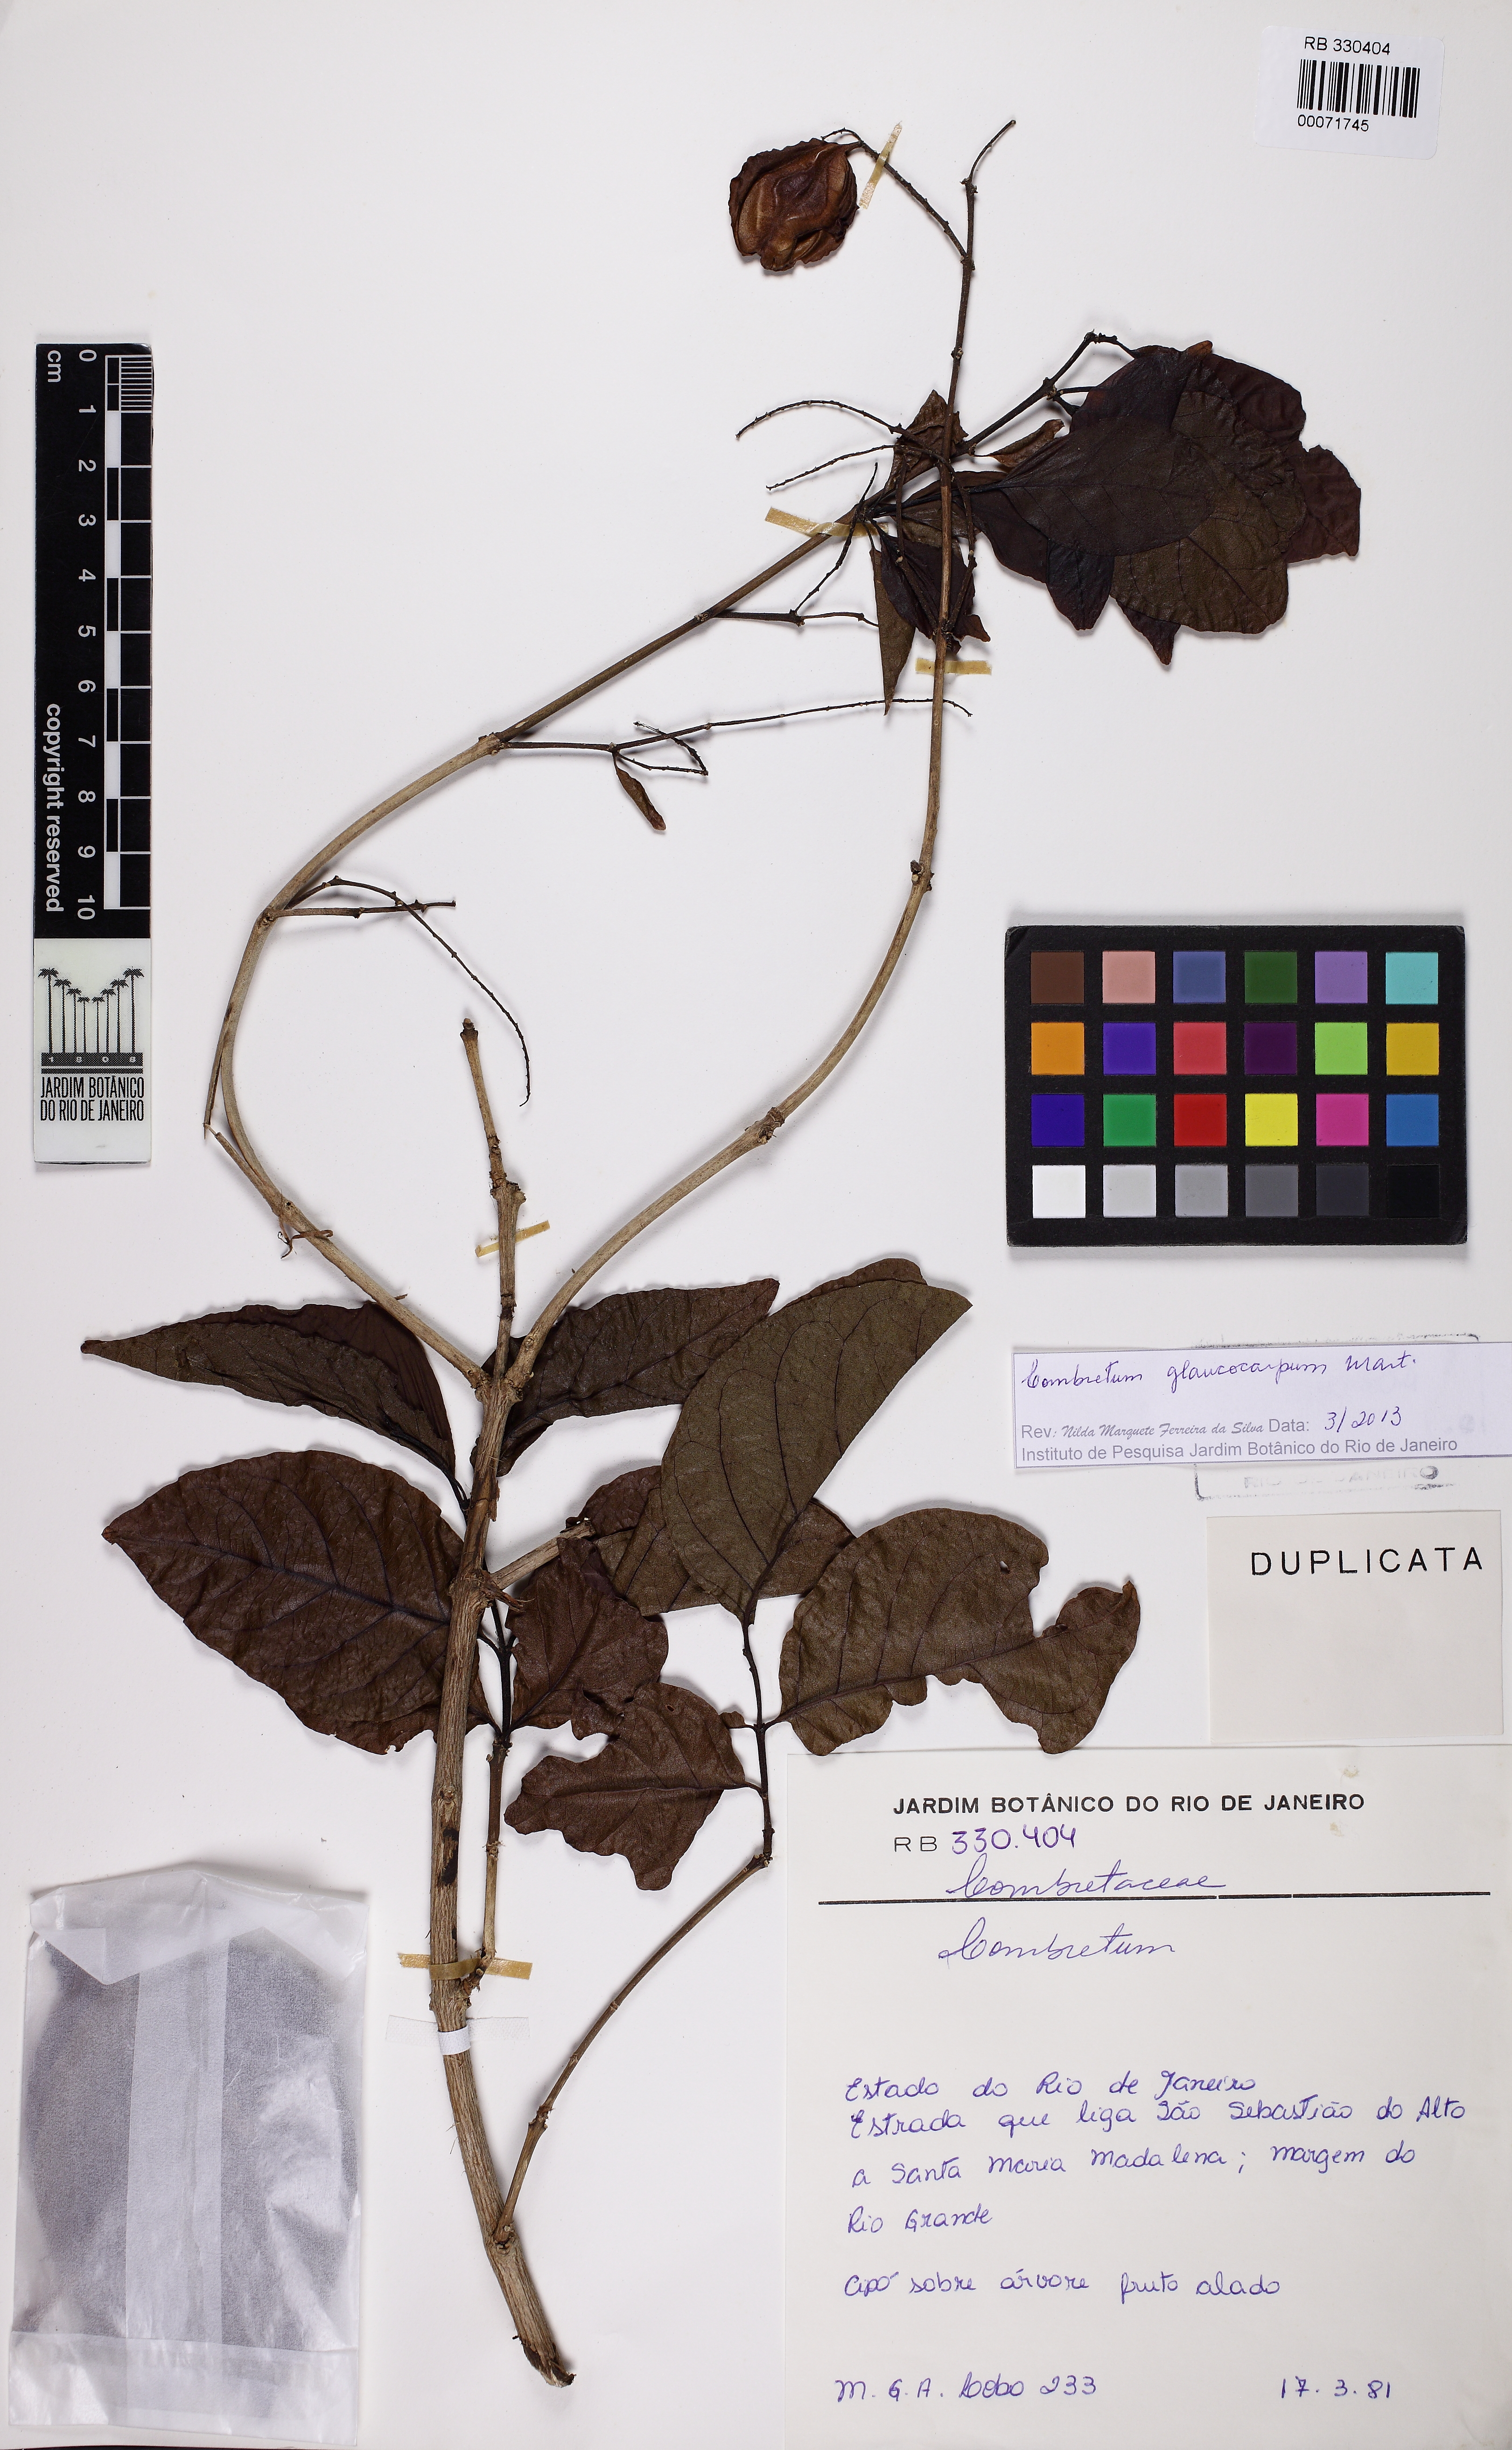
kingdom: Plantae
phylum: Tracheophyta
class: Magnoliopsida
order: Myrtales
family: Combretaceae
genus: Combretum
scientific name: Combretum glaucocarpum
